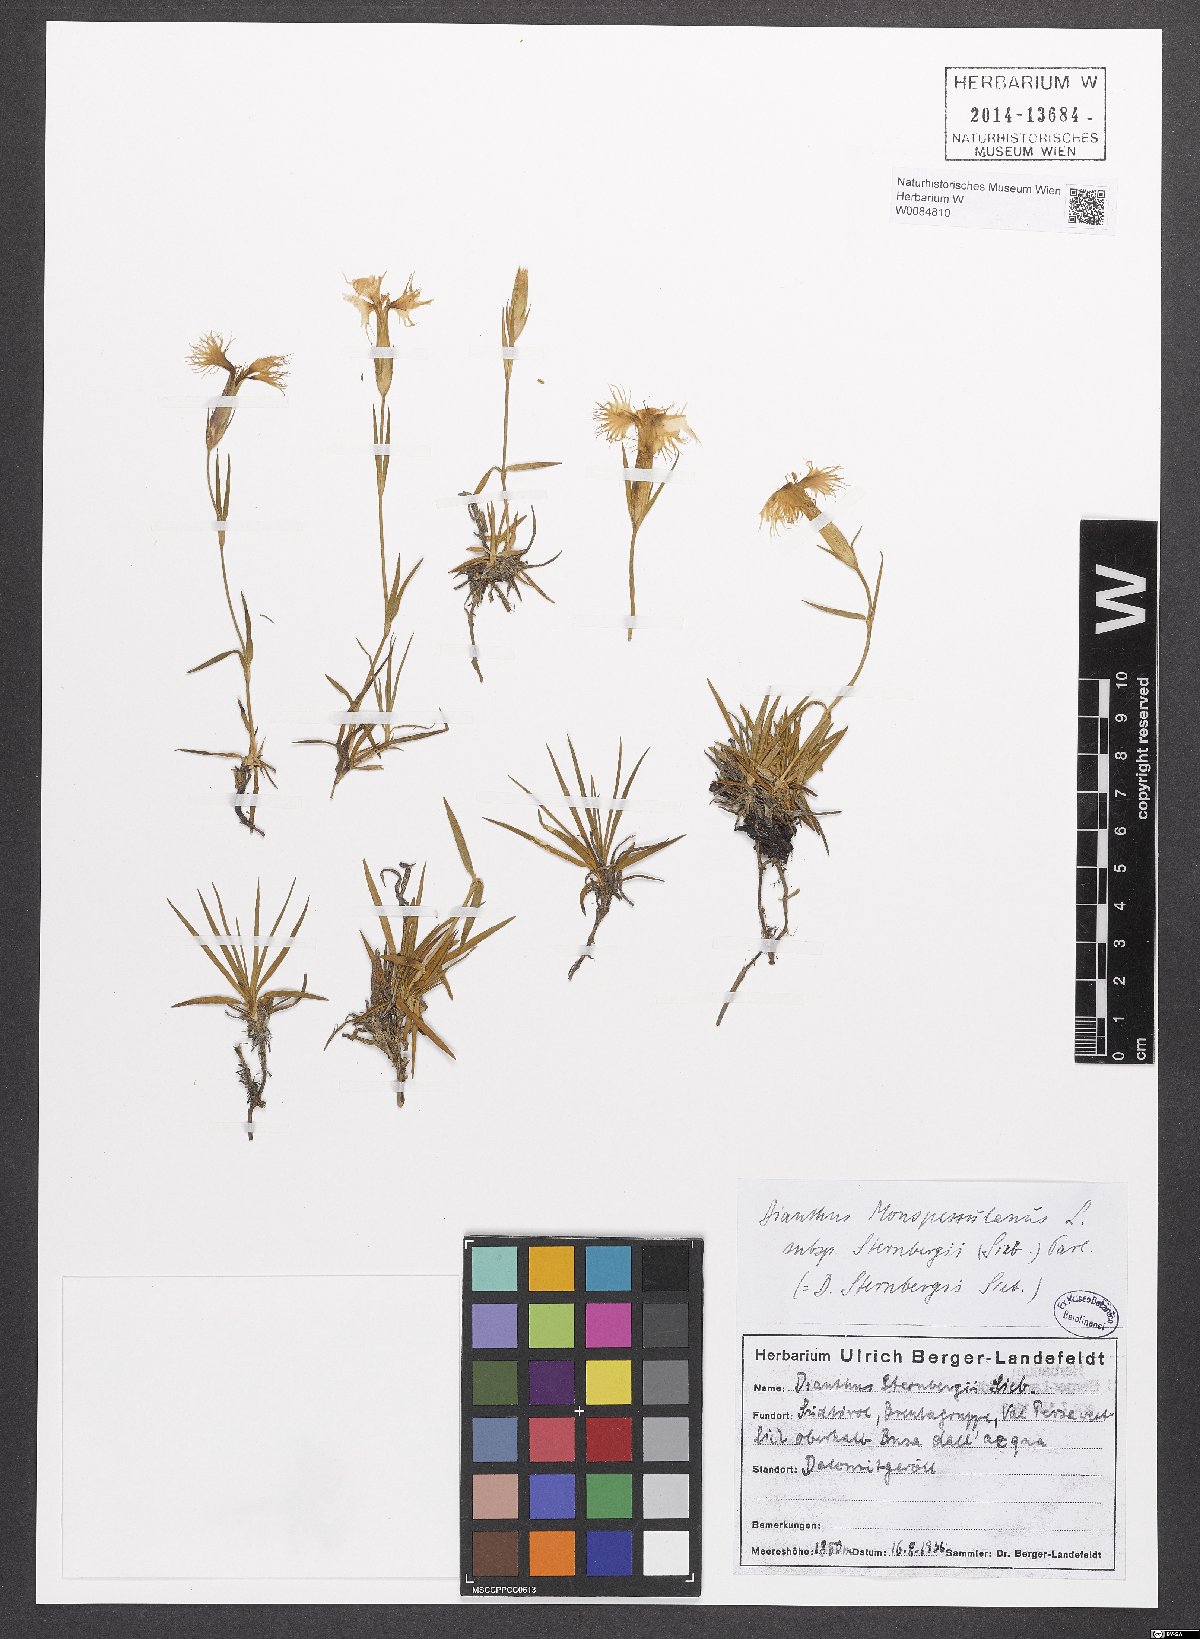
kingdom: Plantae
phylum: Tracheophyta
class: Magnoliopsida
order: Caryophyllales
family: Caryophyllaceae
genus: Dianthus
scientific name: Dianthus monspessulanus
